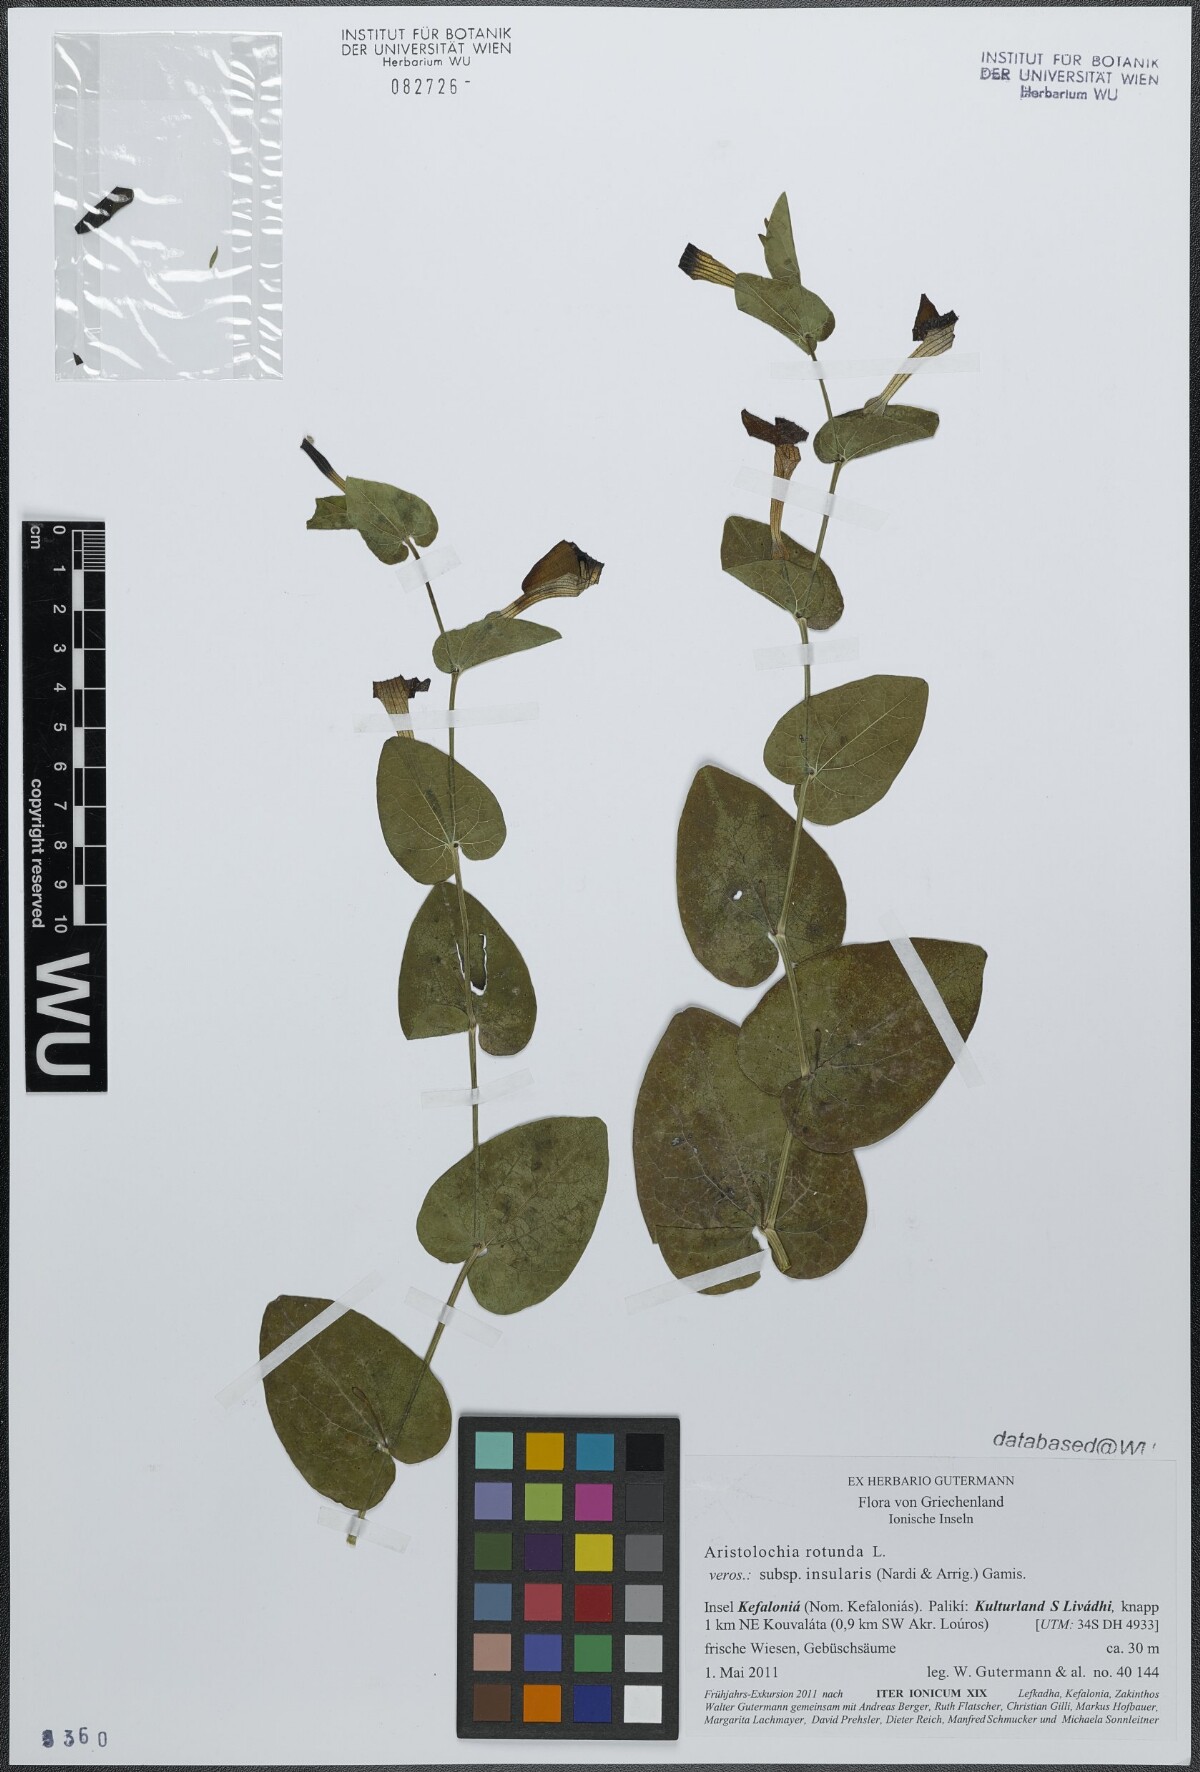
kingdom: Plantae
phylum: Tracheophyta
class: Magnoliopsida
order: Piperales
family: Aristolochiaceae
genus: Aristolochia
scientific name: Aristolochia rotunda
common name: Smearwort
